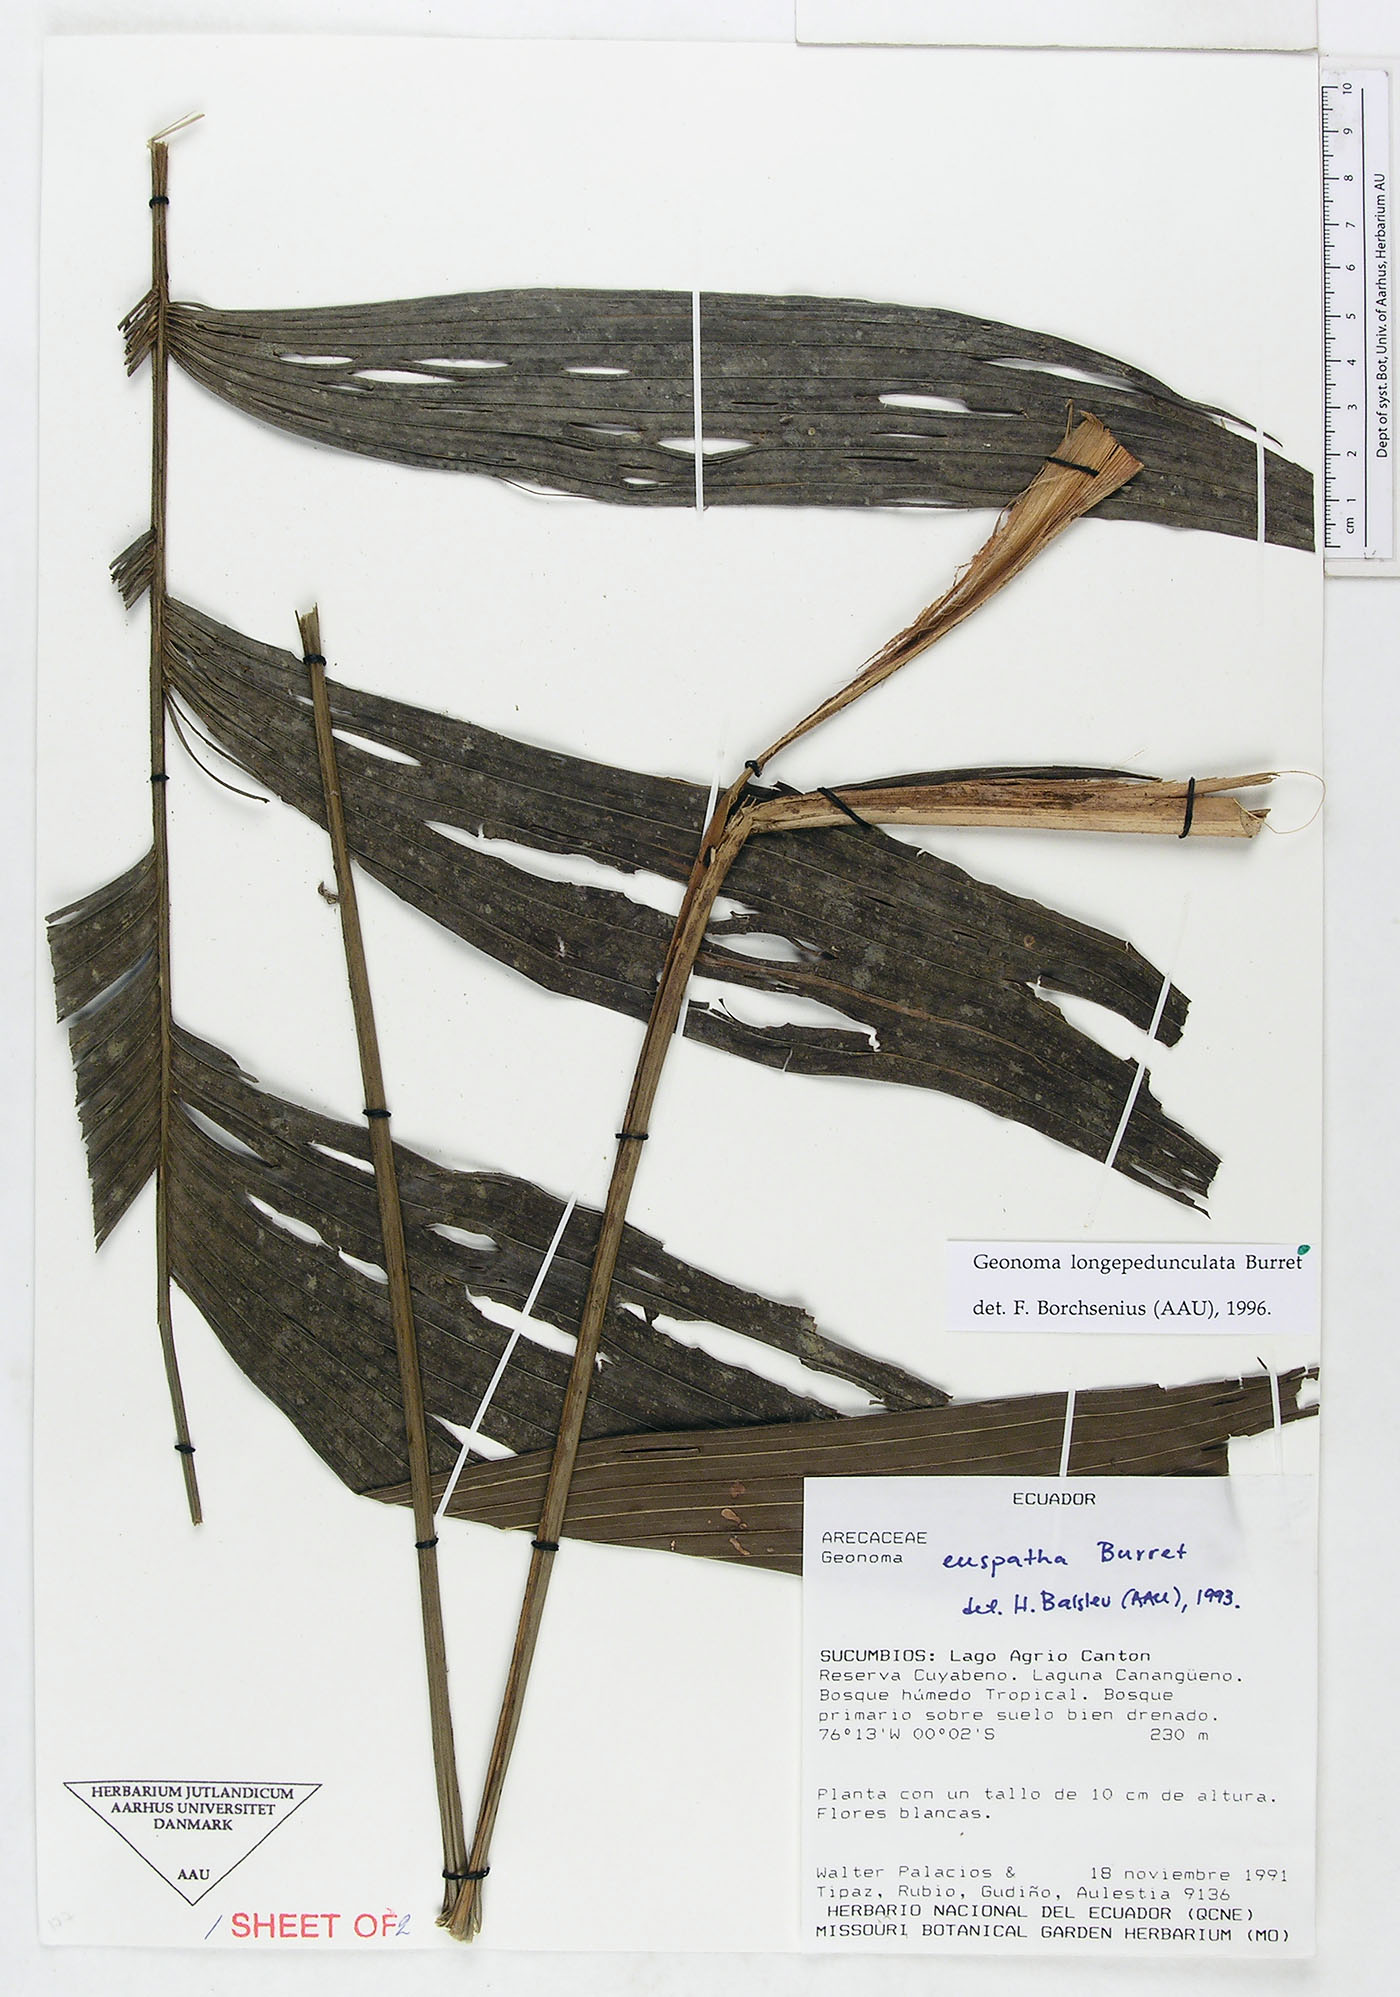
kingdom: Plantae
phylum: Tracheophyta
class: Liliopsida
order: Arecales
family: Arecaceae
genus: Geonoma
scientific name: Geonoma longepedunculata
